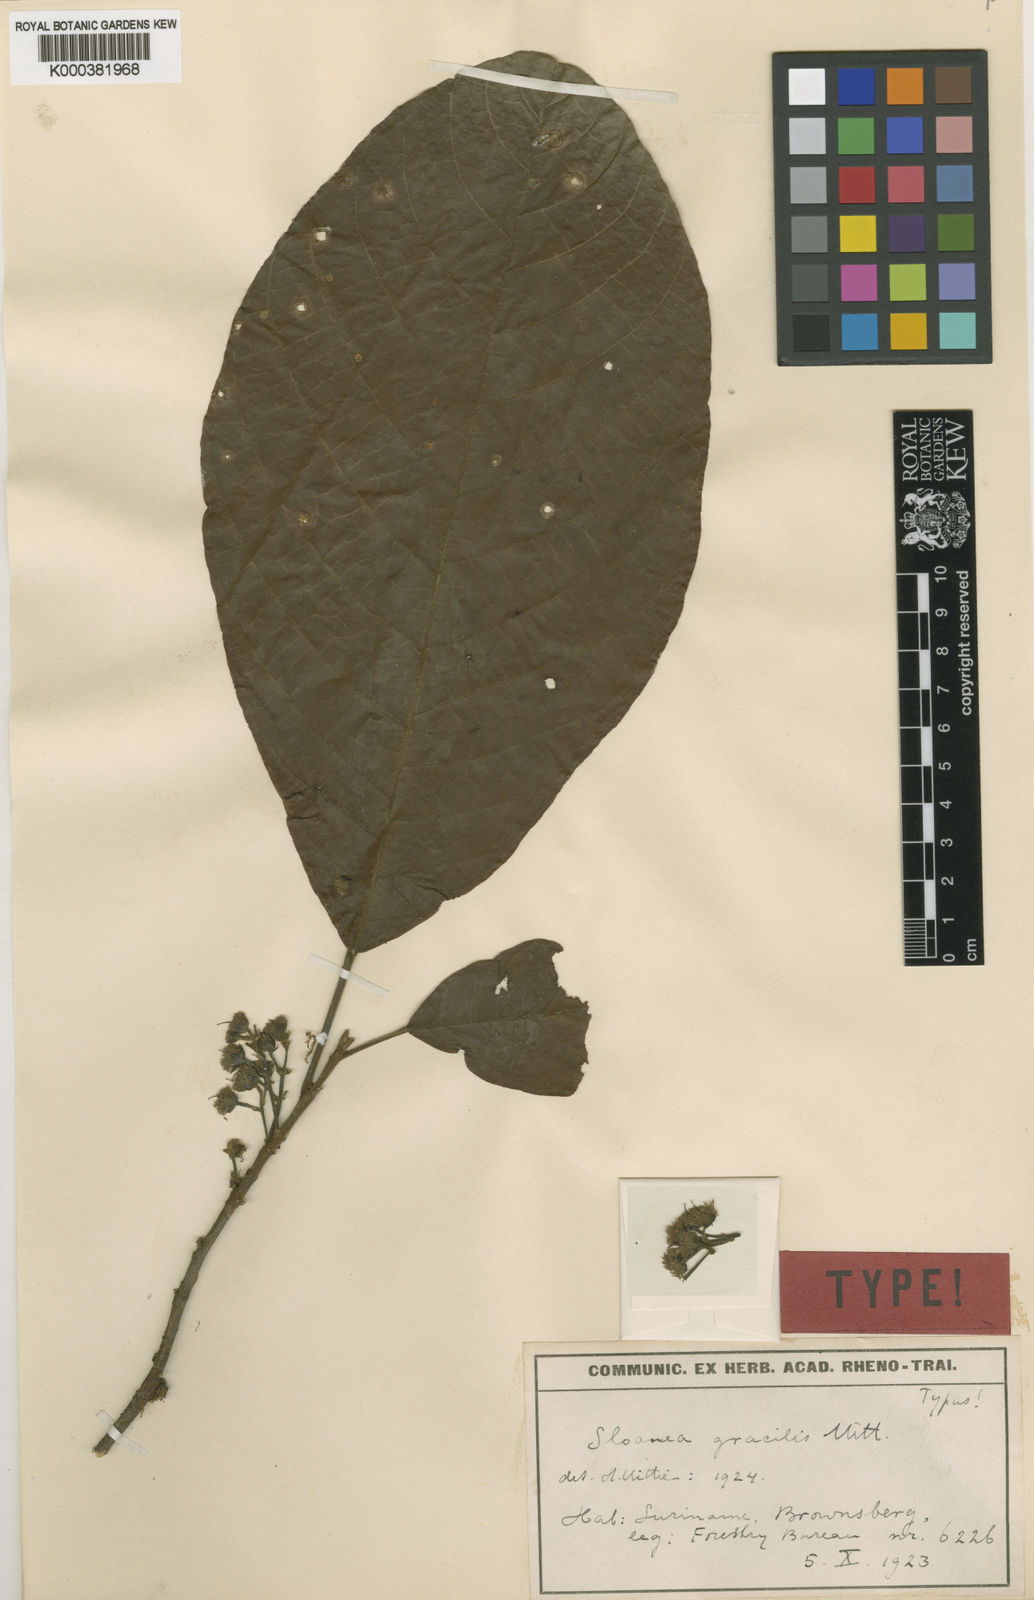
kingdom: Plantae
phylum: Tracheophyta
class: Magnoliopsida
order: Oxalidales
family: Elaeocarpaceae
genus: Sloanea
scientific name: Sloanea pubescens
